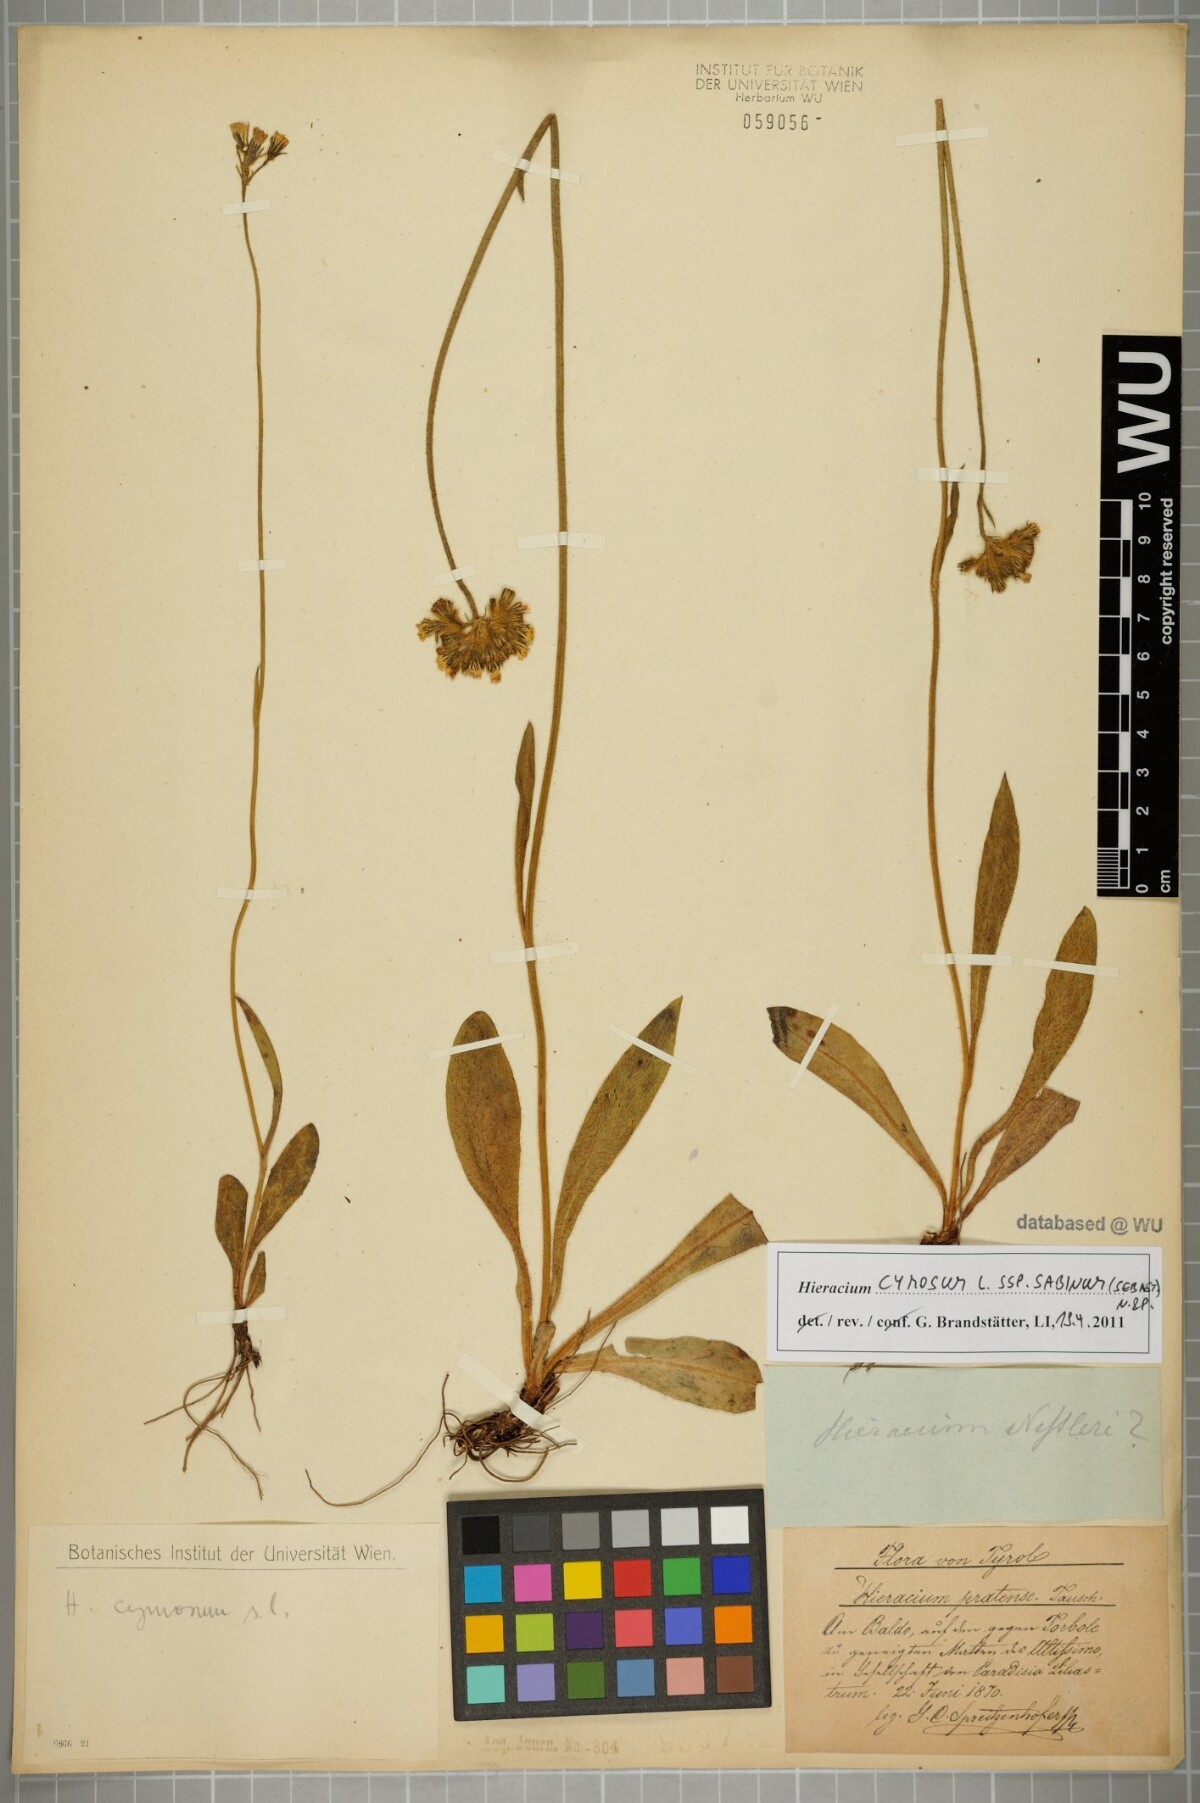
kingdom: Plantae
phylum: Tracheophyta
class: Magnoliopsida
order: Asterales
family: Asteraceae
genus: Pilosella
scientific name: Pilosella cymosa
